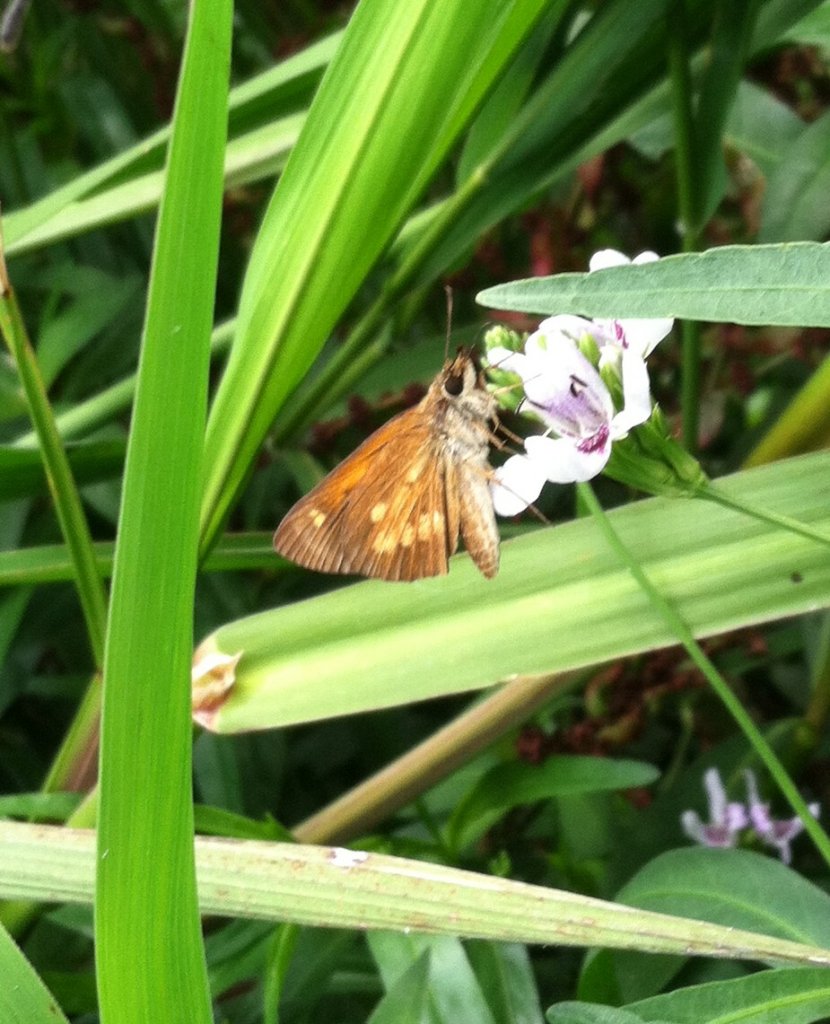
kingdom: Animalia
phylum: Arthropoda
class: Insecta
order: Lepidoptera
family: Hesperiidae
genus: Poanes
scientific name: Poanes viator
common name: Broad-winged Skipper
